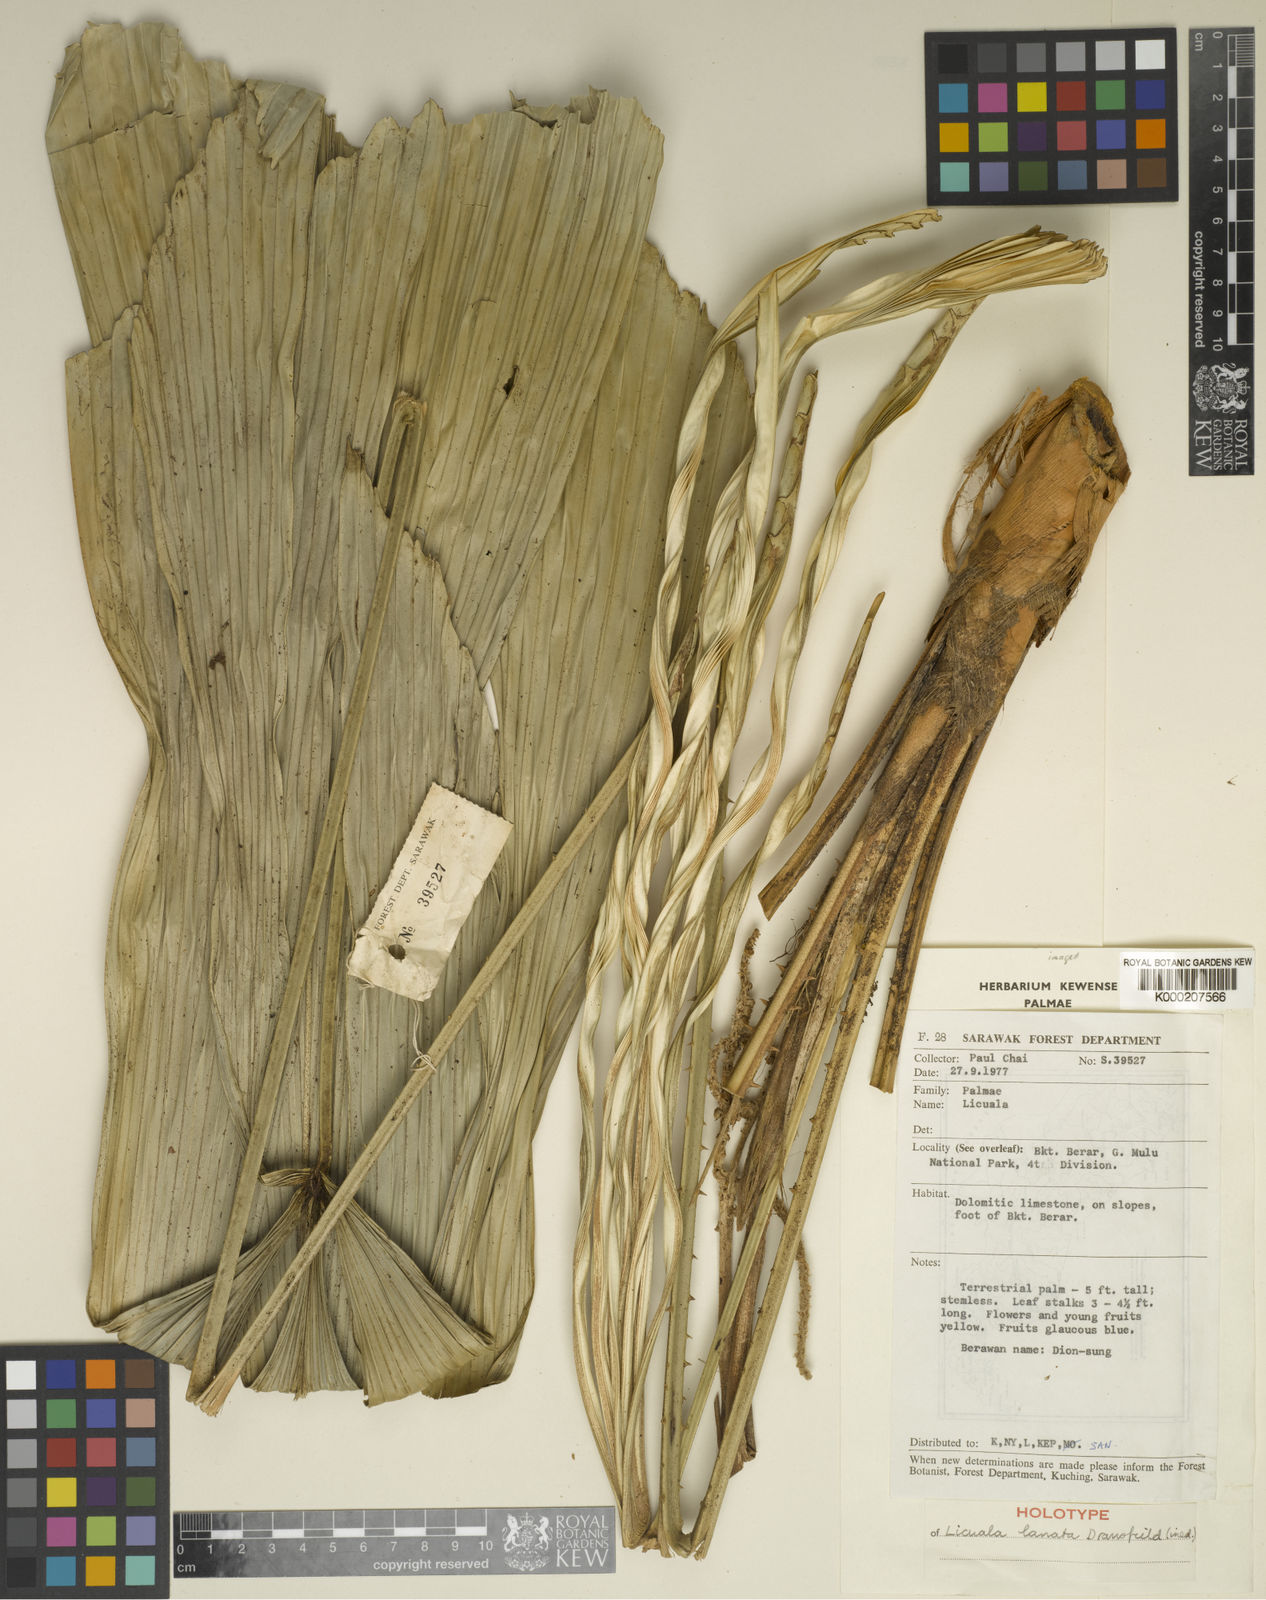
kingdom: Plantae
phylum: Tracheophyta
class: Liliopsida
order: Arecales
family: Arecaceae
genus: Licuala
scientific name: Licuala lanata
